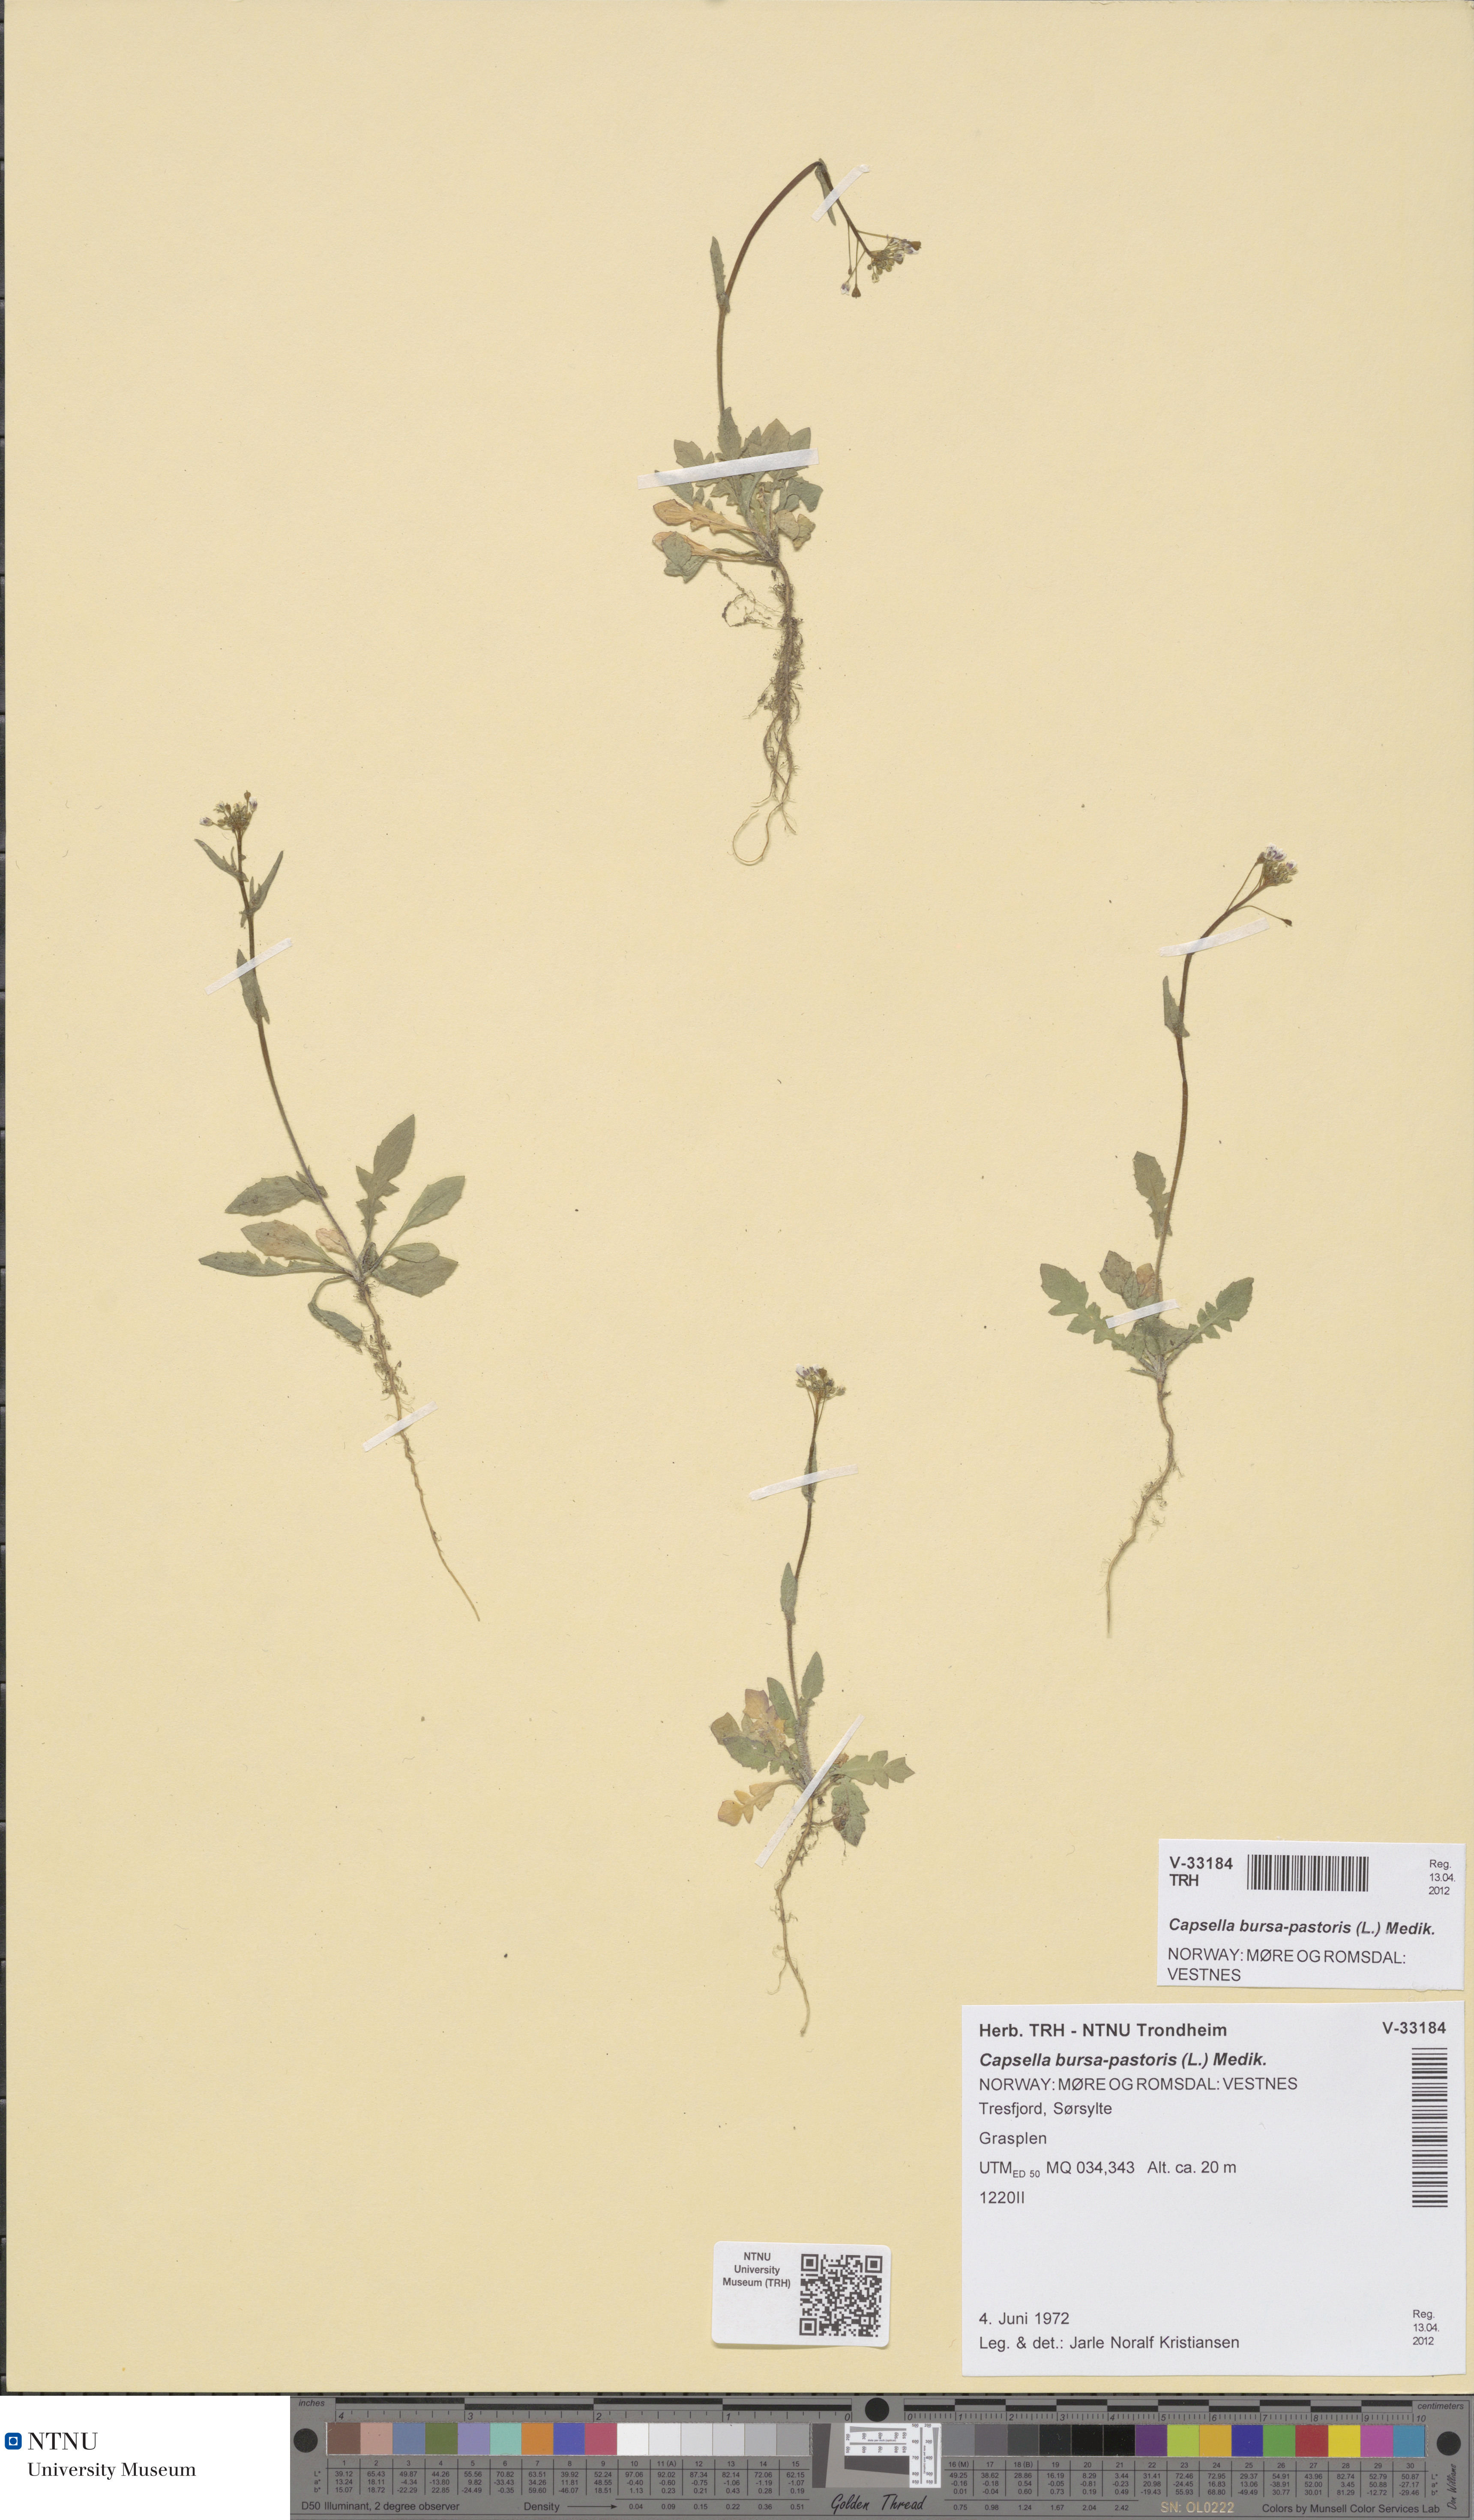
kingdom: Plantae
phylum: Tracheophyta
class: Magnoliopsida
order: Brassicales
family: Brassicaceae
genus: Capsella
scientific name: Capsella bursa-pastoris
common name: Shepherd's purse
